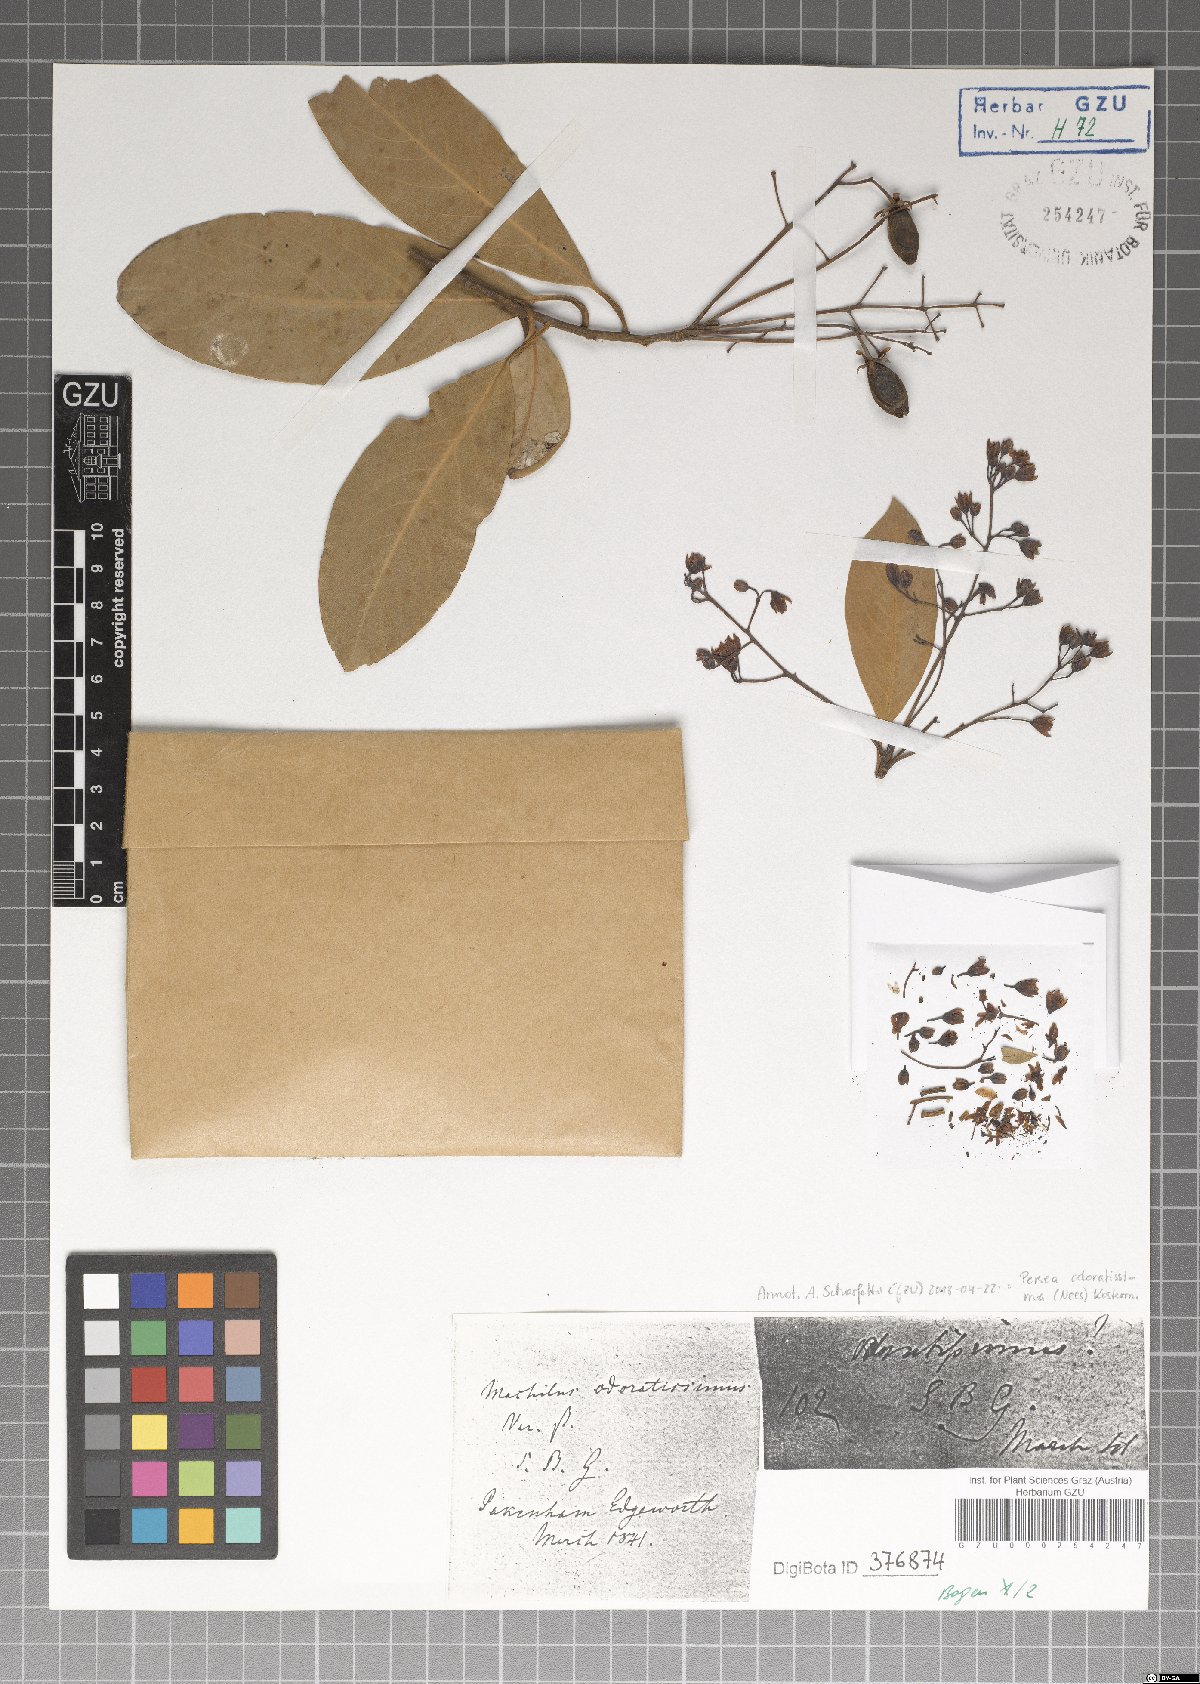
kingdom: Plantae
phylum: Tracheophyta
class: Magnoliopsida
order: Laurales
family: Lauraceae
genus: Machilus
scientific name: Machilus odoratissimus
